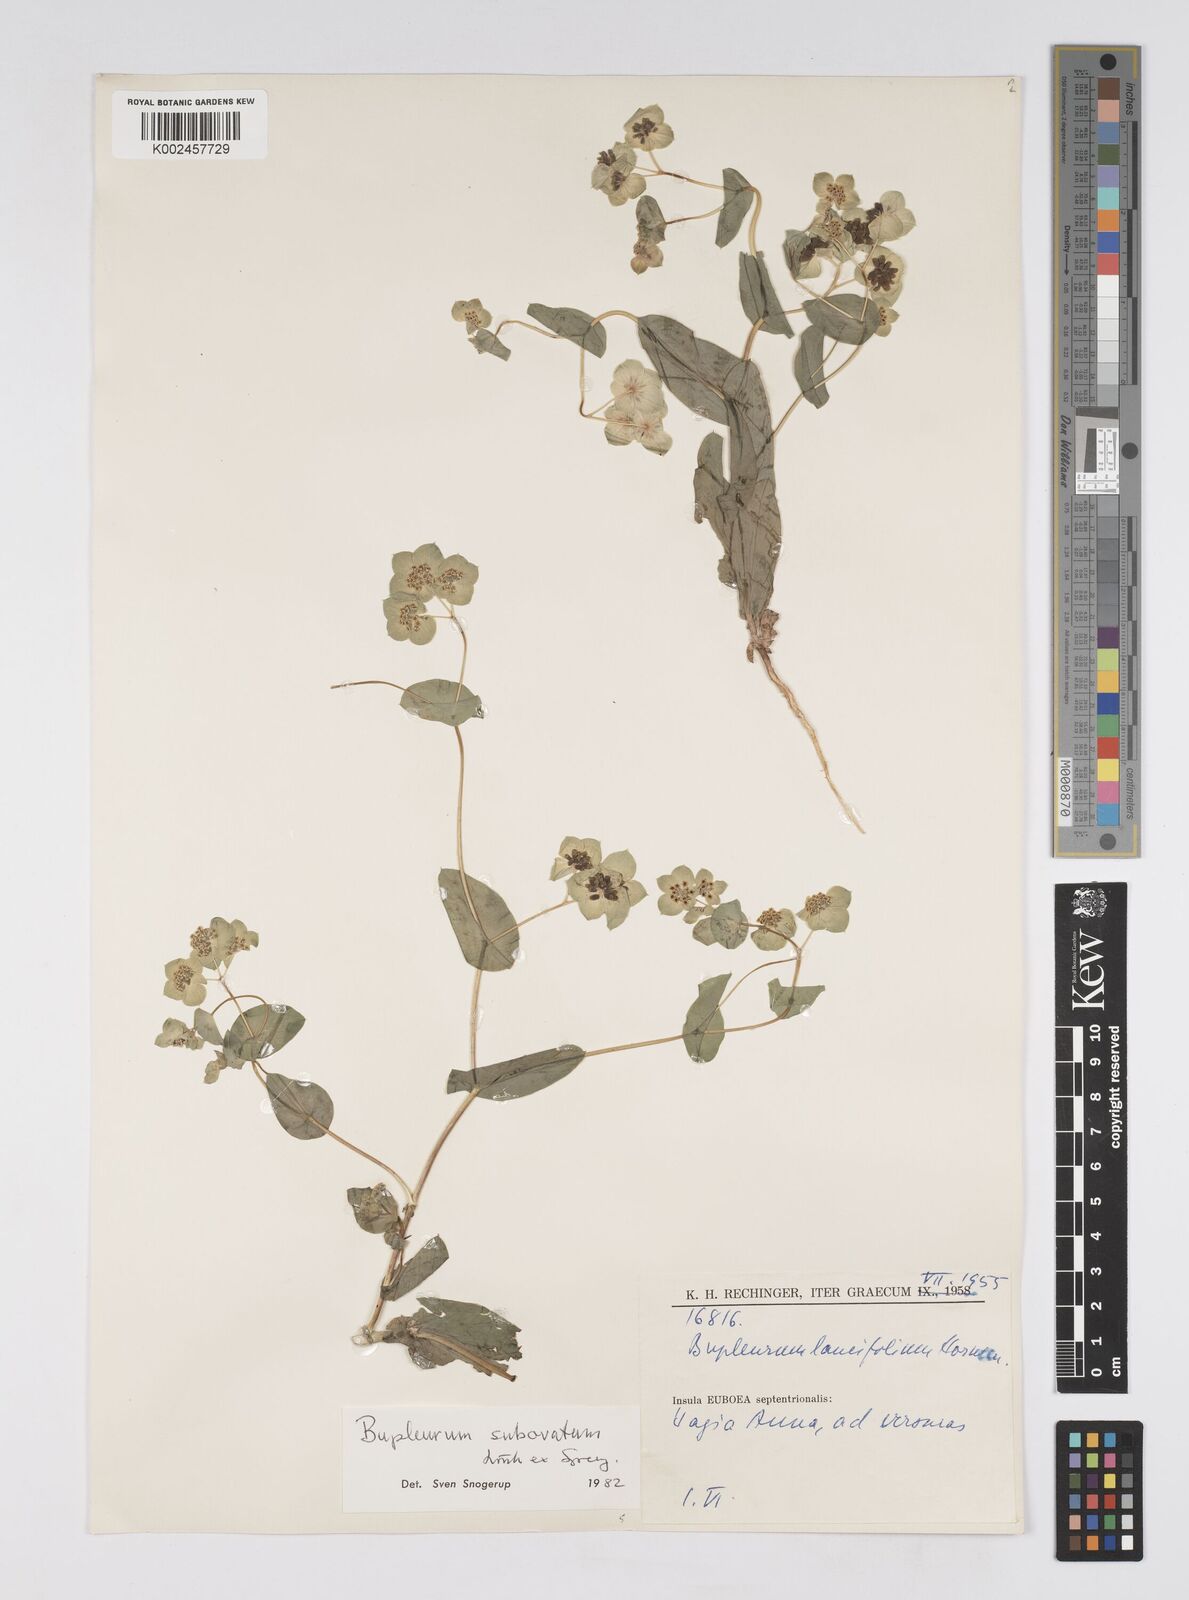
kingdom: Plantae
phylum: Tracheophyta
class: Magnoliopsida
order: Apiales
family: Apiaceae
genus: Bupleurum
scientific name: Bupleurum subovatum
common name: False thorow-wax
